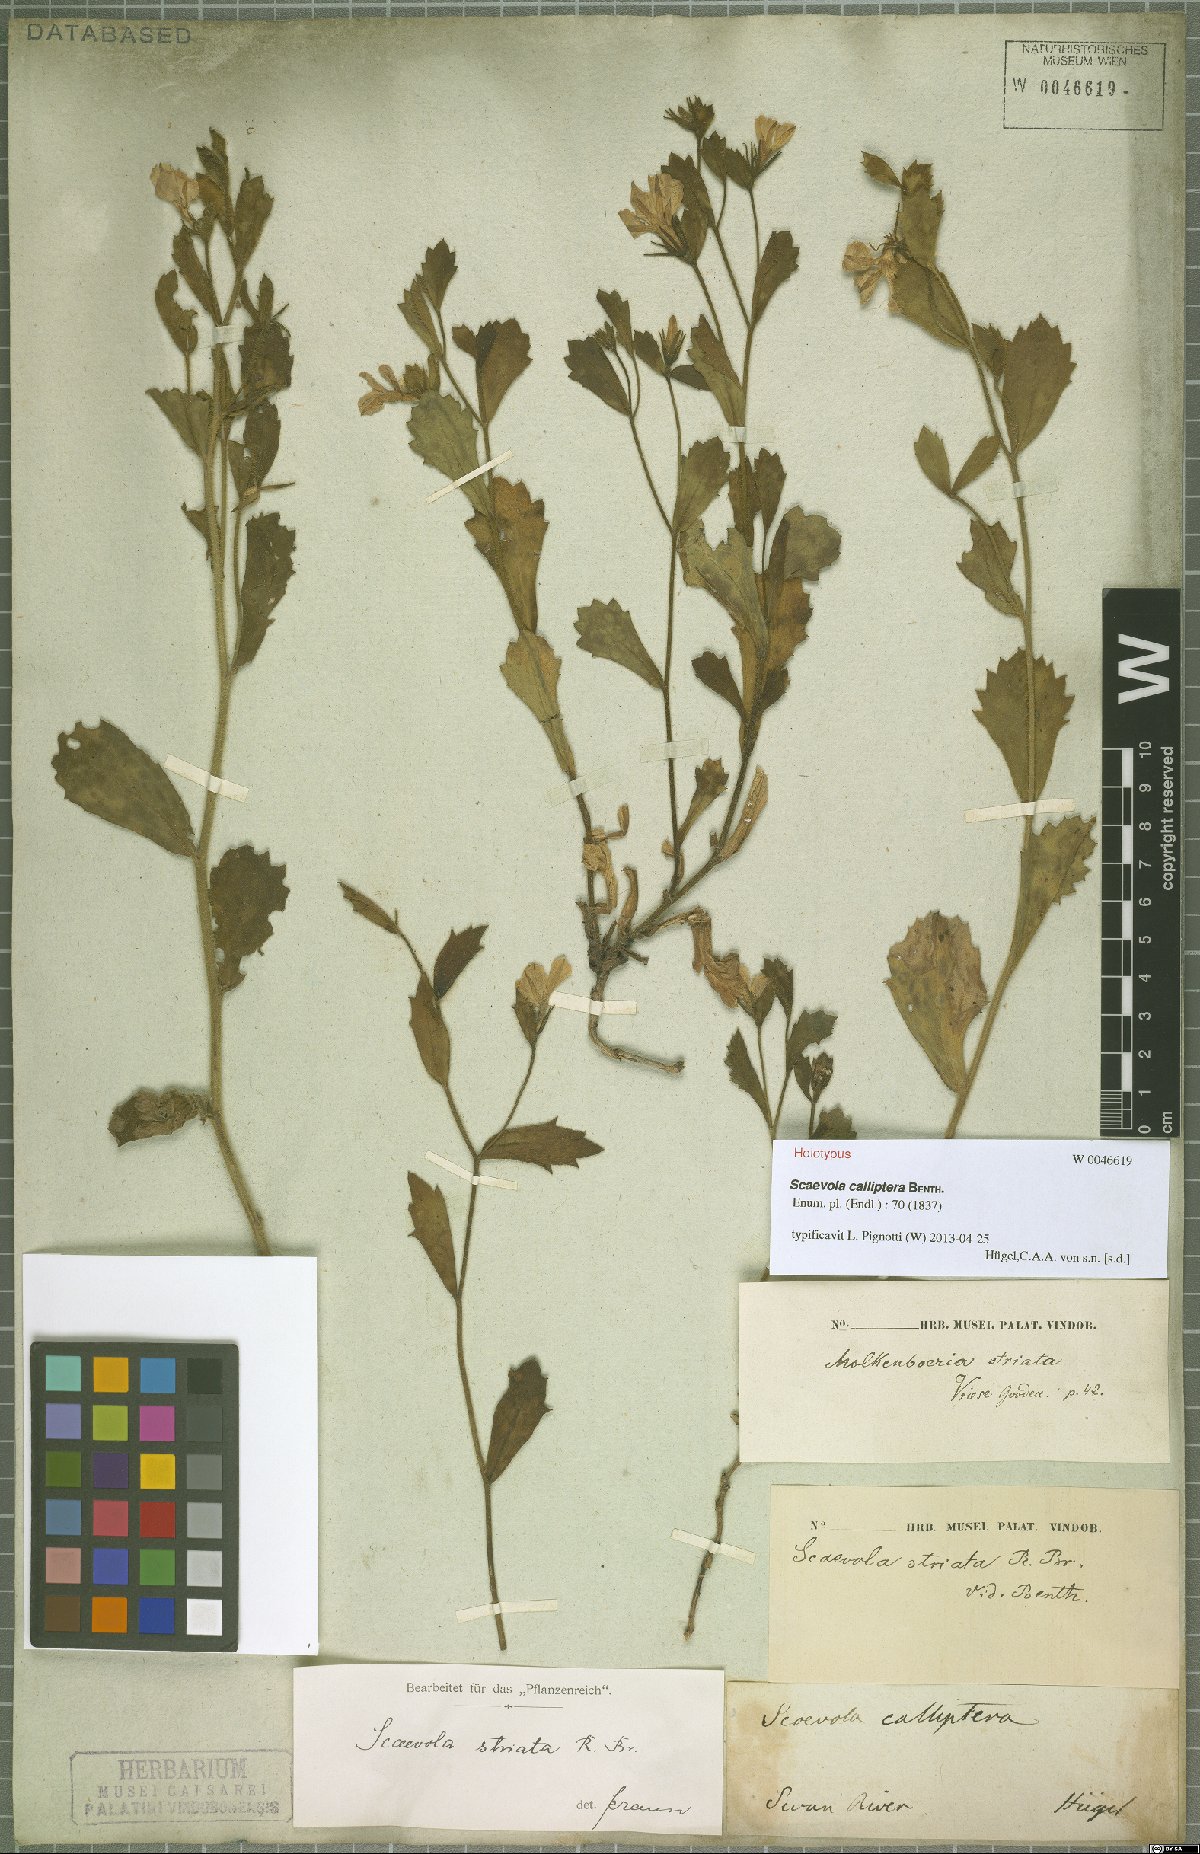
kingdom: Plantae
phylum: Tracheophyta
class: Magnoliopsida
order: Asterales
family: Goodeniaceae
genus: Scaevola
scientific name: Scaevola calliptera
